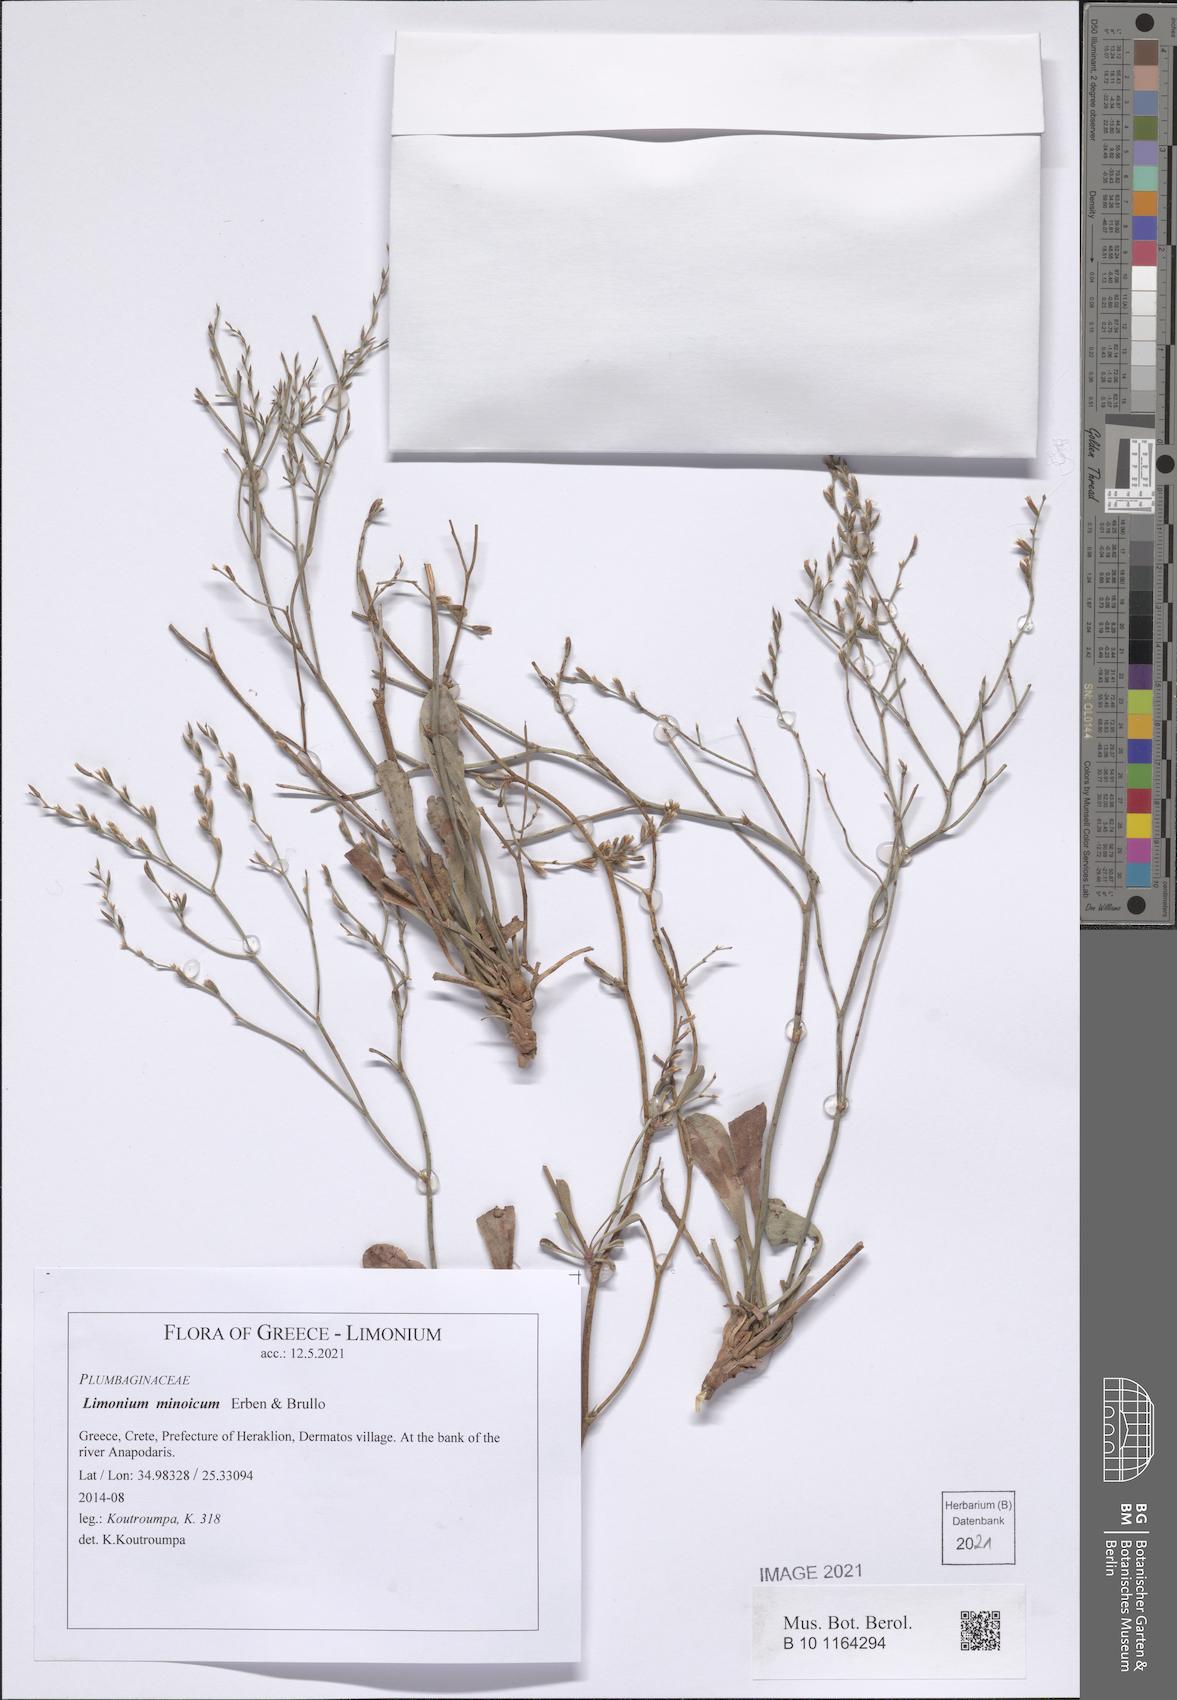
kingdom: Plantae
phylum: Tracheophyta
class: Magnoliopsida
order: Caryophyllales
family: Plumbaginaceae
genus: Limonium
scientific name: Limonium minoicum
